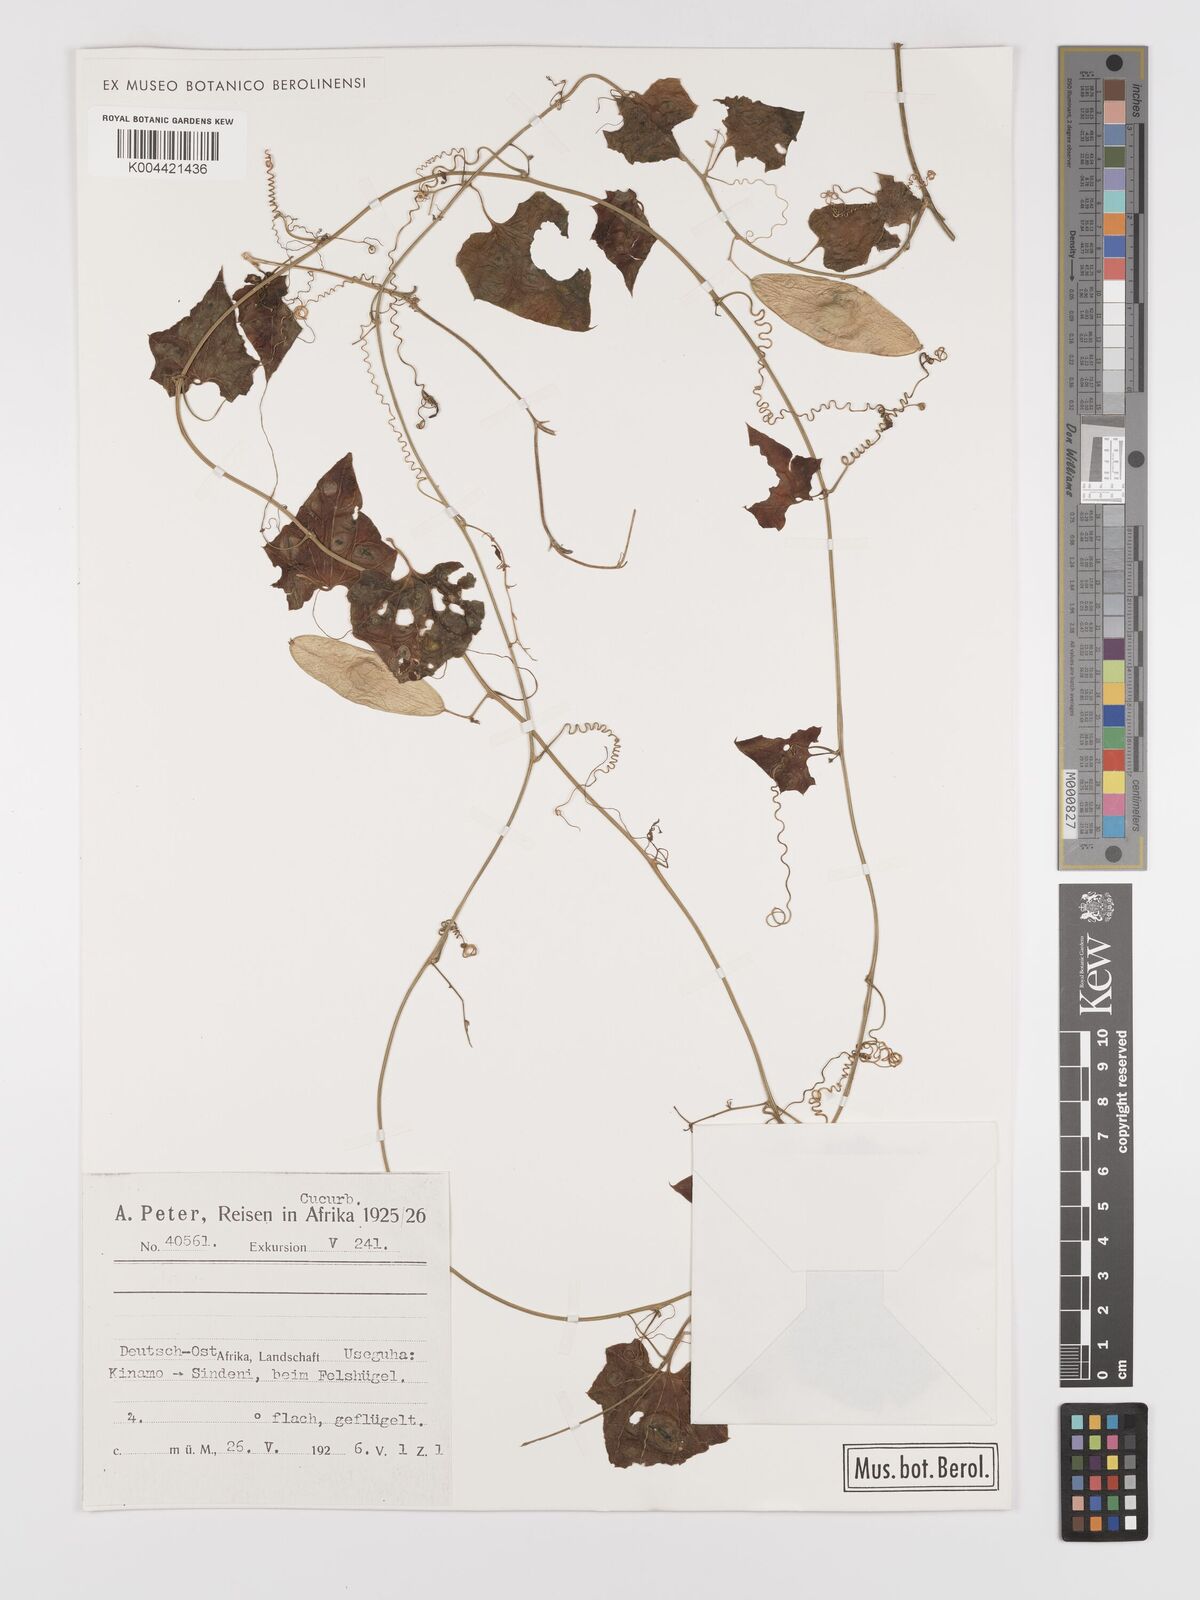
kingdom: Plantae
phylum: Tracheophyta
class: Magnoliopsida
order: Cucurbitales
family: Cucurbitaceae
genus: Cyclantheropsis
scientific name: Cyclantheropsis parviflora
